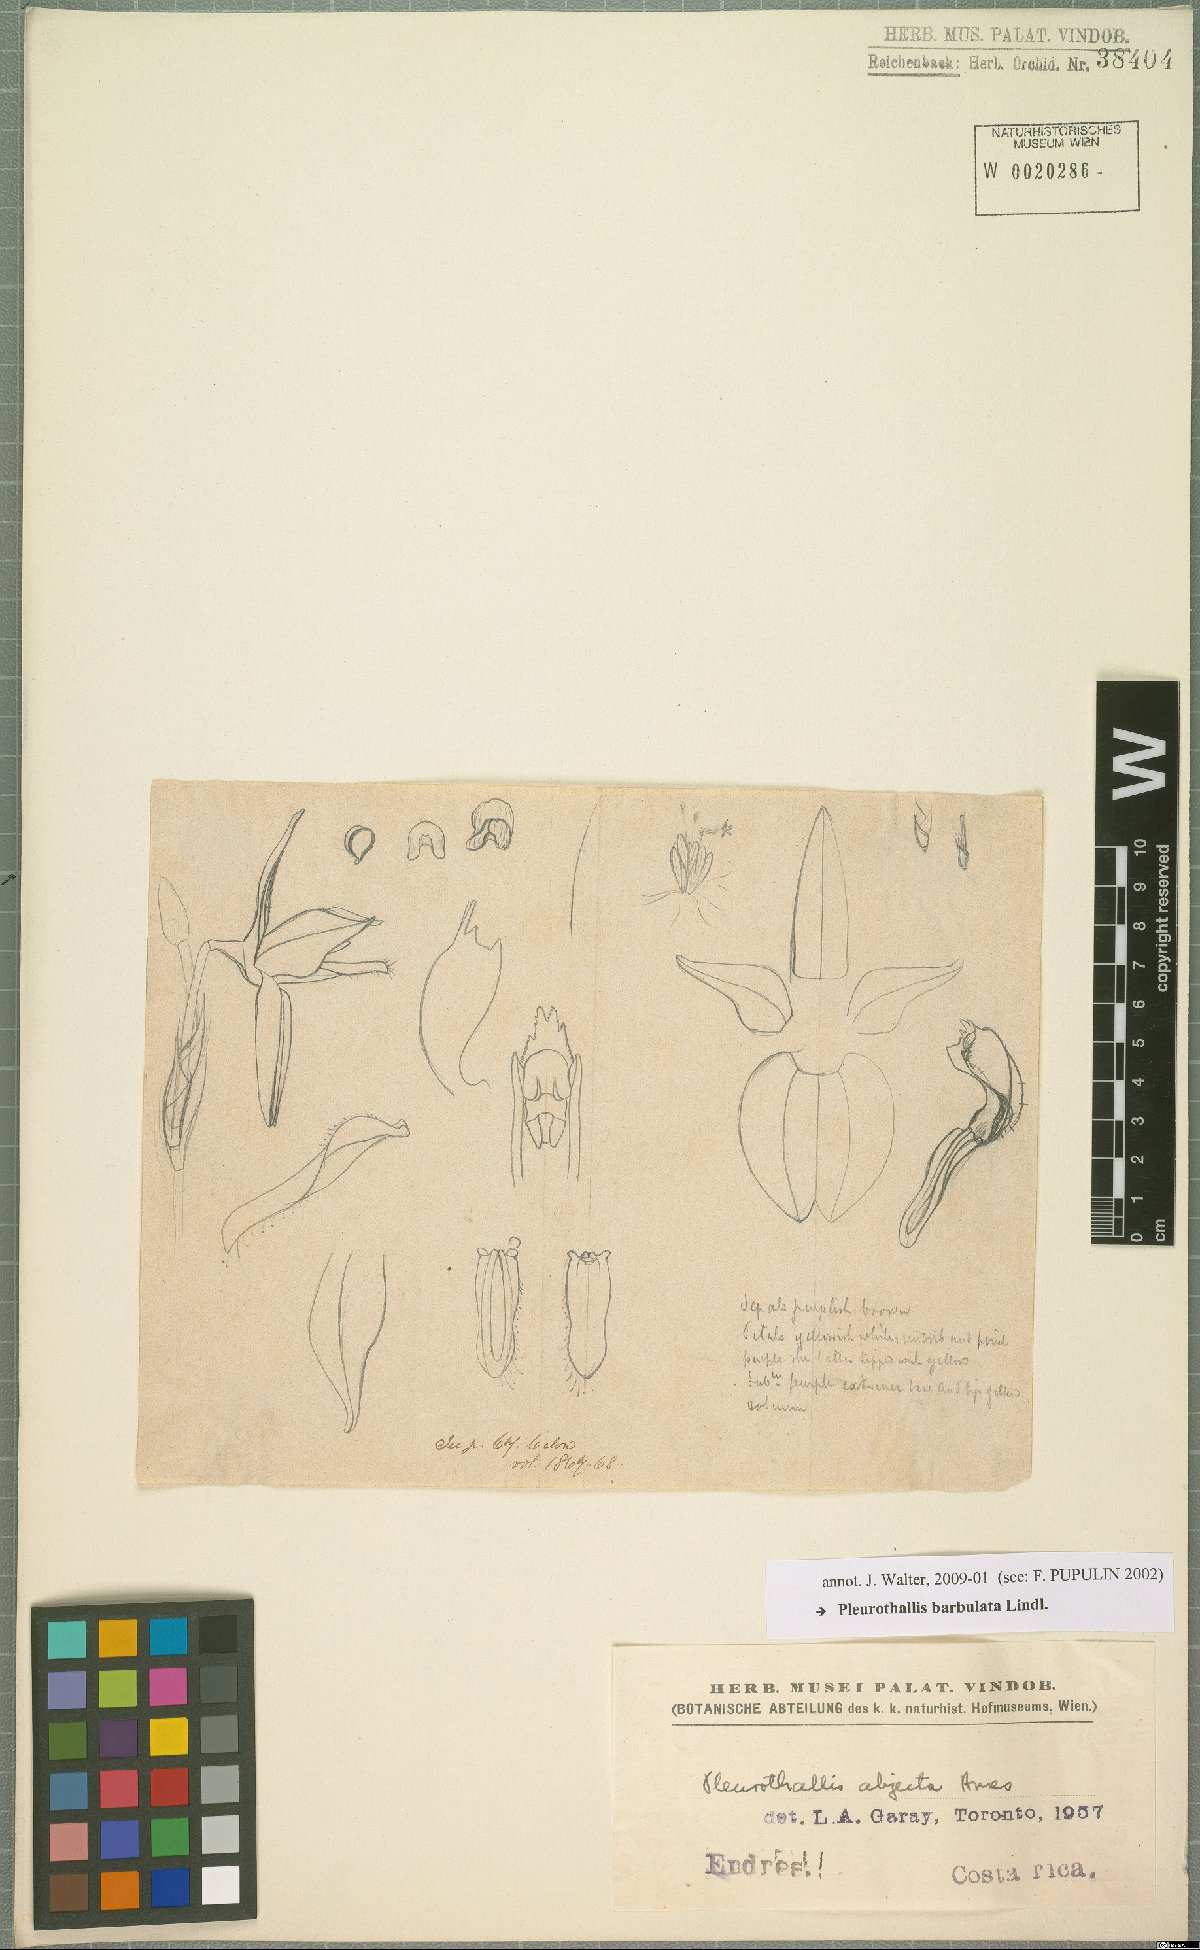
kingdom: Plantae
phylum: Tracheophyta
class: Liliopsida
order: Asparagales
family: Orchidaceae
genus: Anathallis
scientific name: Anathallis barbulata
